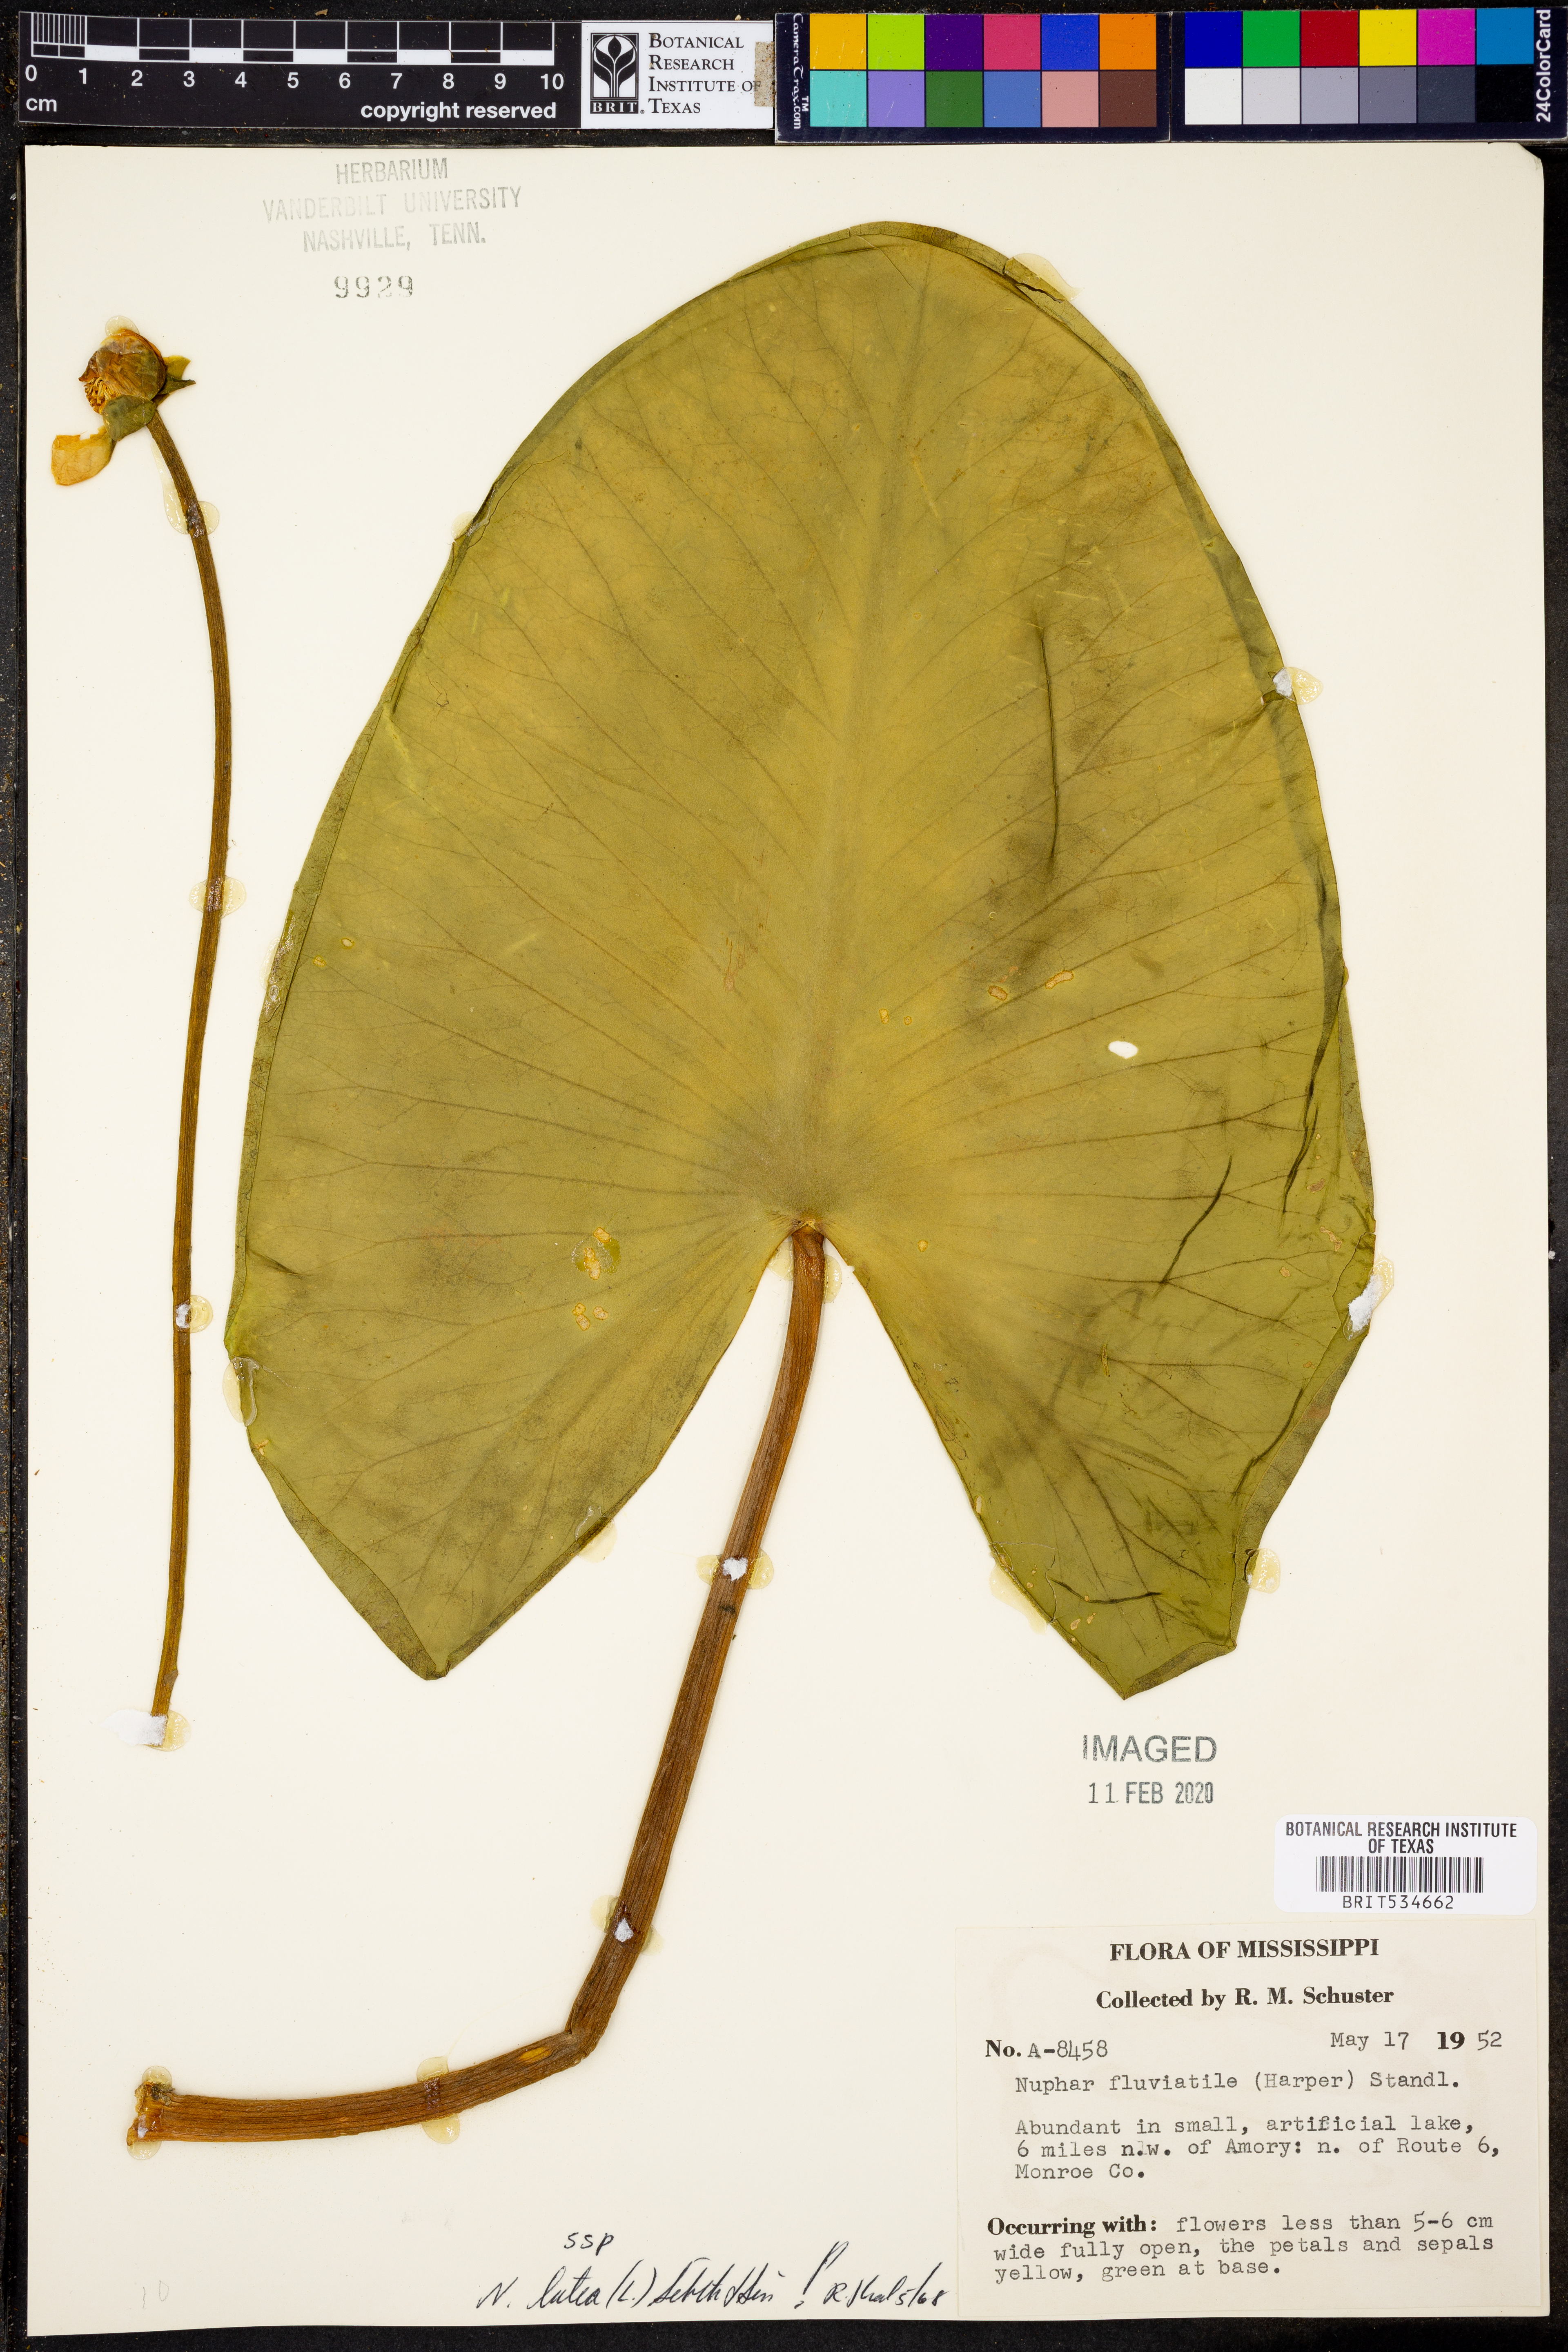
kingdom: Plantae
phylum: Tracheophyta
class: Magnoliopsida
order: Nymphaeales
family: Nymphaeaceae
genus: Nuphar
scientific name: Nuphar lutea
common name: Yellow water-lily
